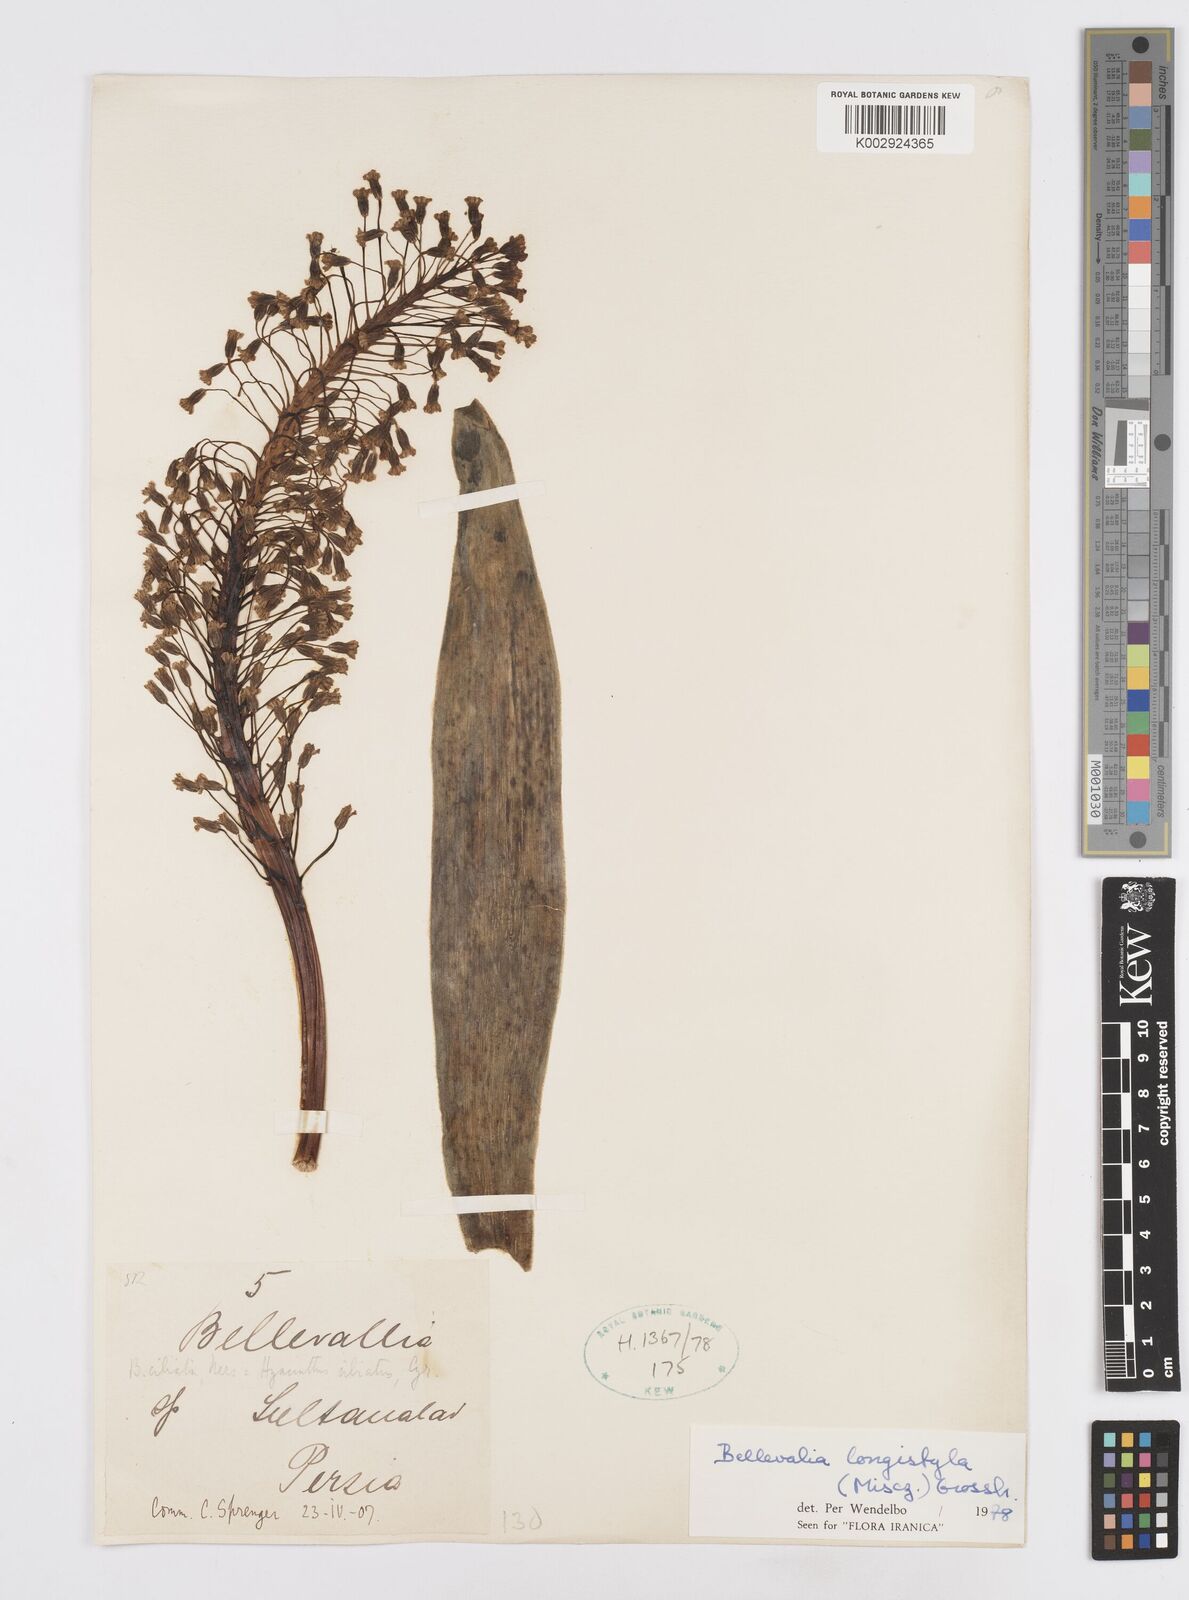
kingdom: Plantae
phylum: Tracheophyta
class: Liliopsida
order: Asparagales
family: Asparagaceae
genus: Bellevalia
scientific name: Bellevalia longistyla
